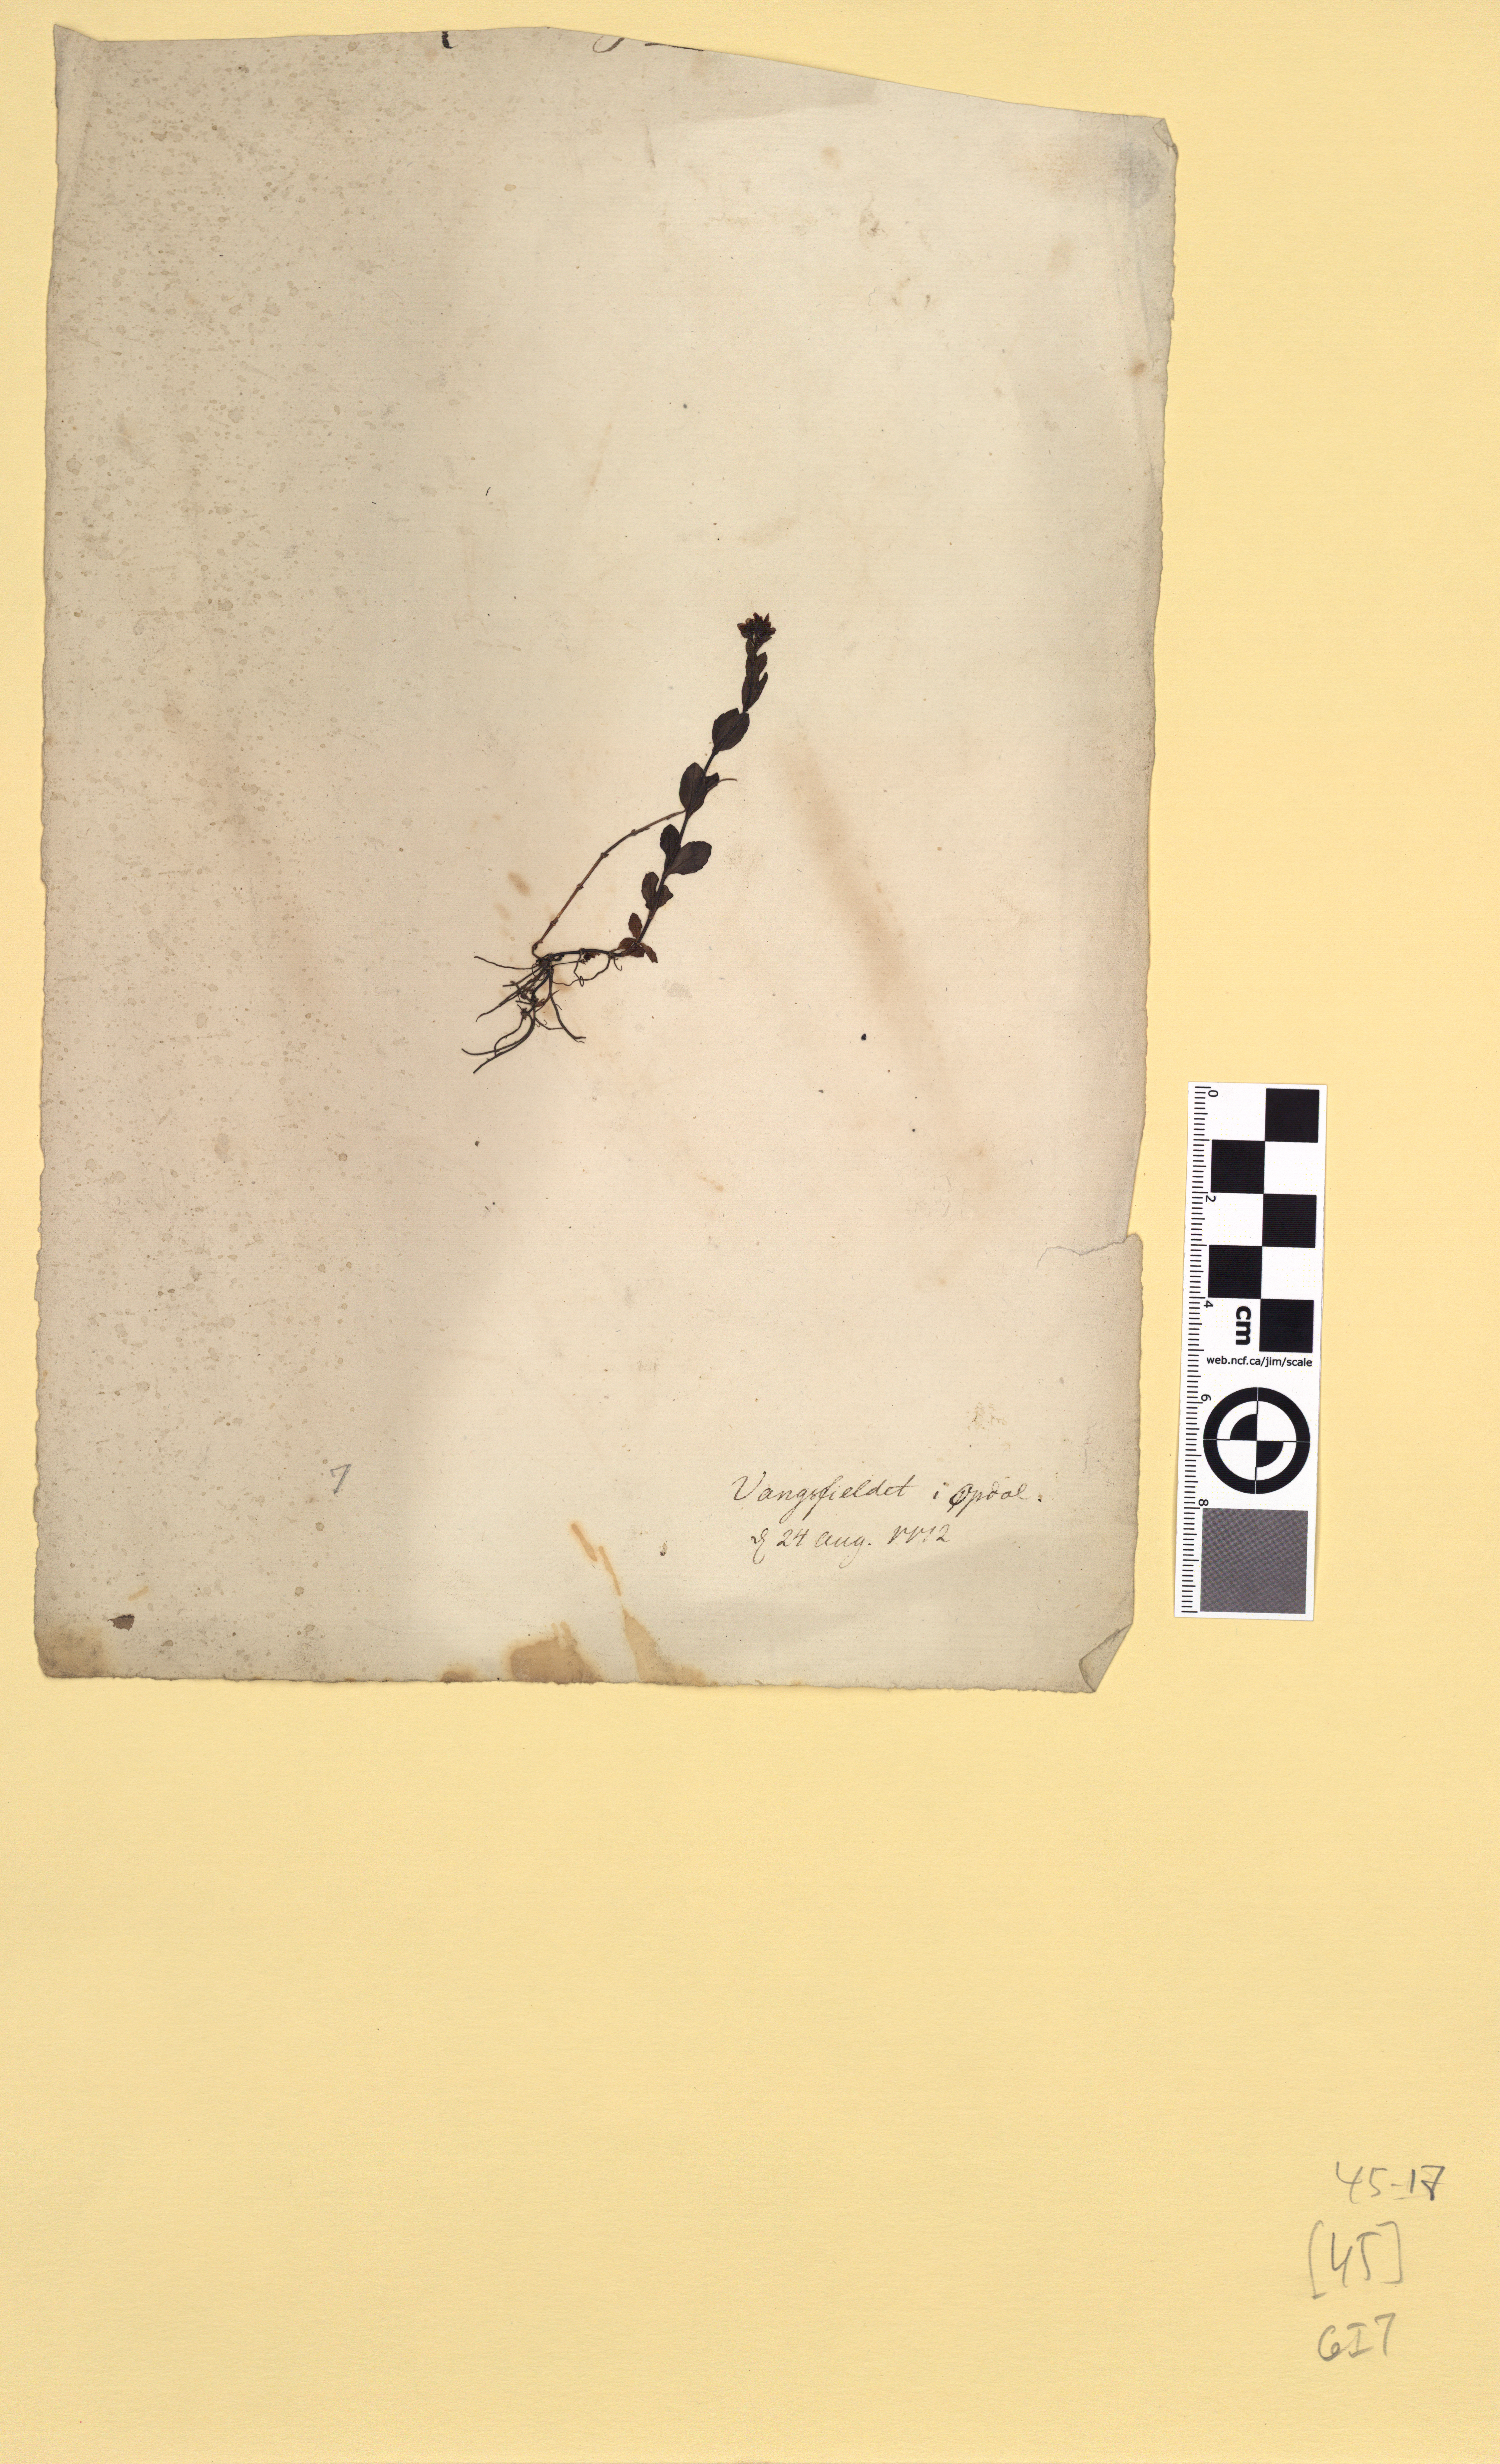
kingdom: Plantae
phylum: Tracheophyta
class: Magnoliopsida
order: Lamiales
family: Plantaginaceae
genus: Veronica
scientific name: Veronica alpina
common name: Alpine speedwell
